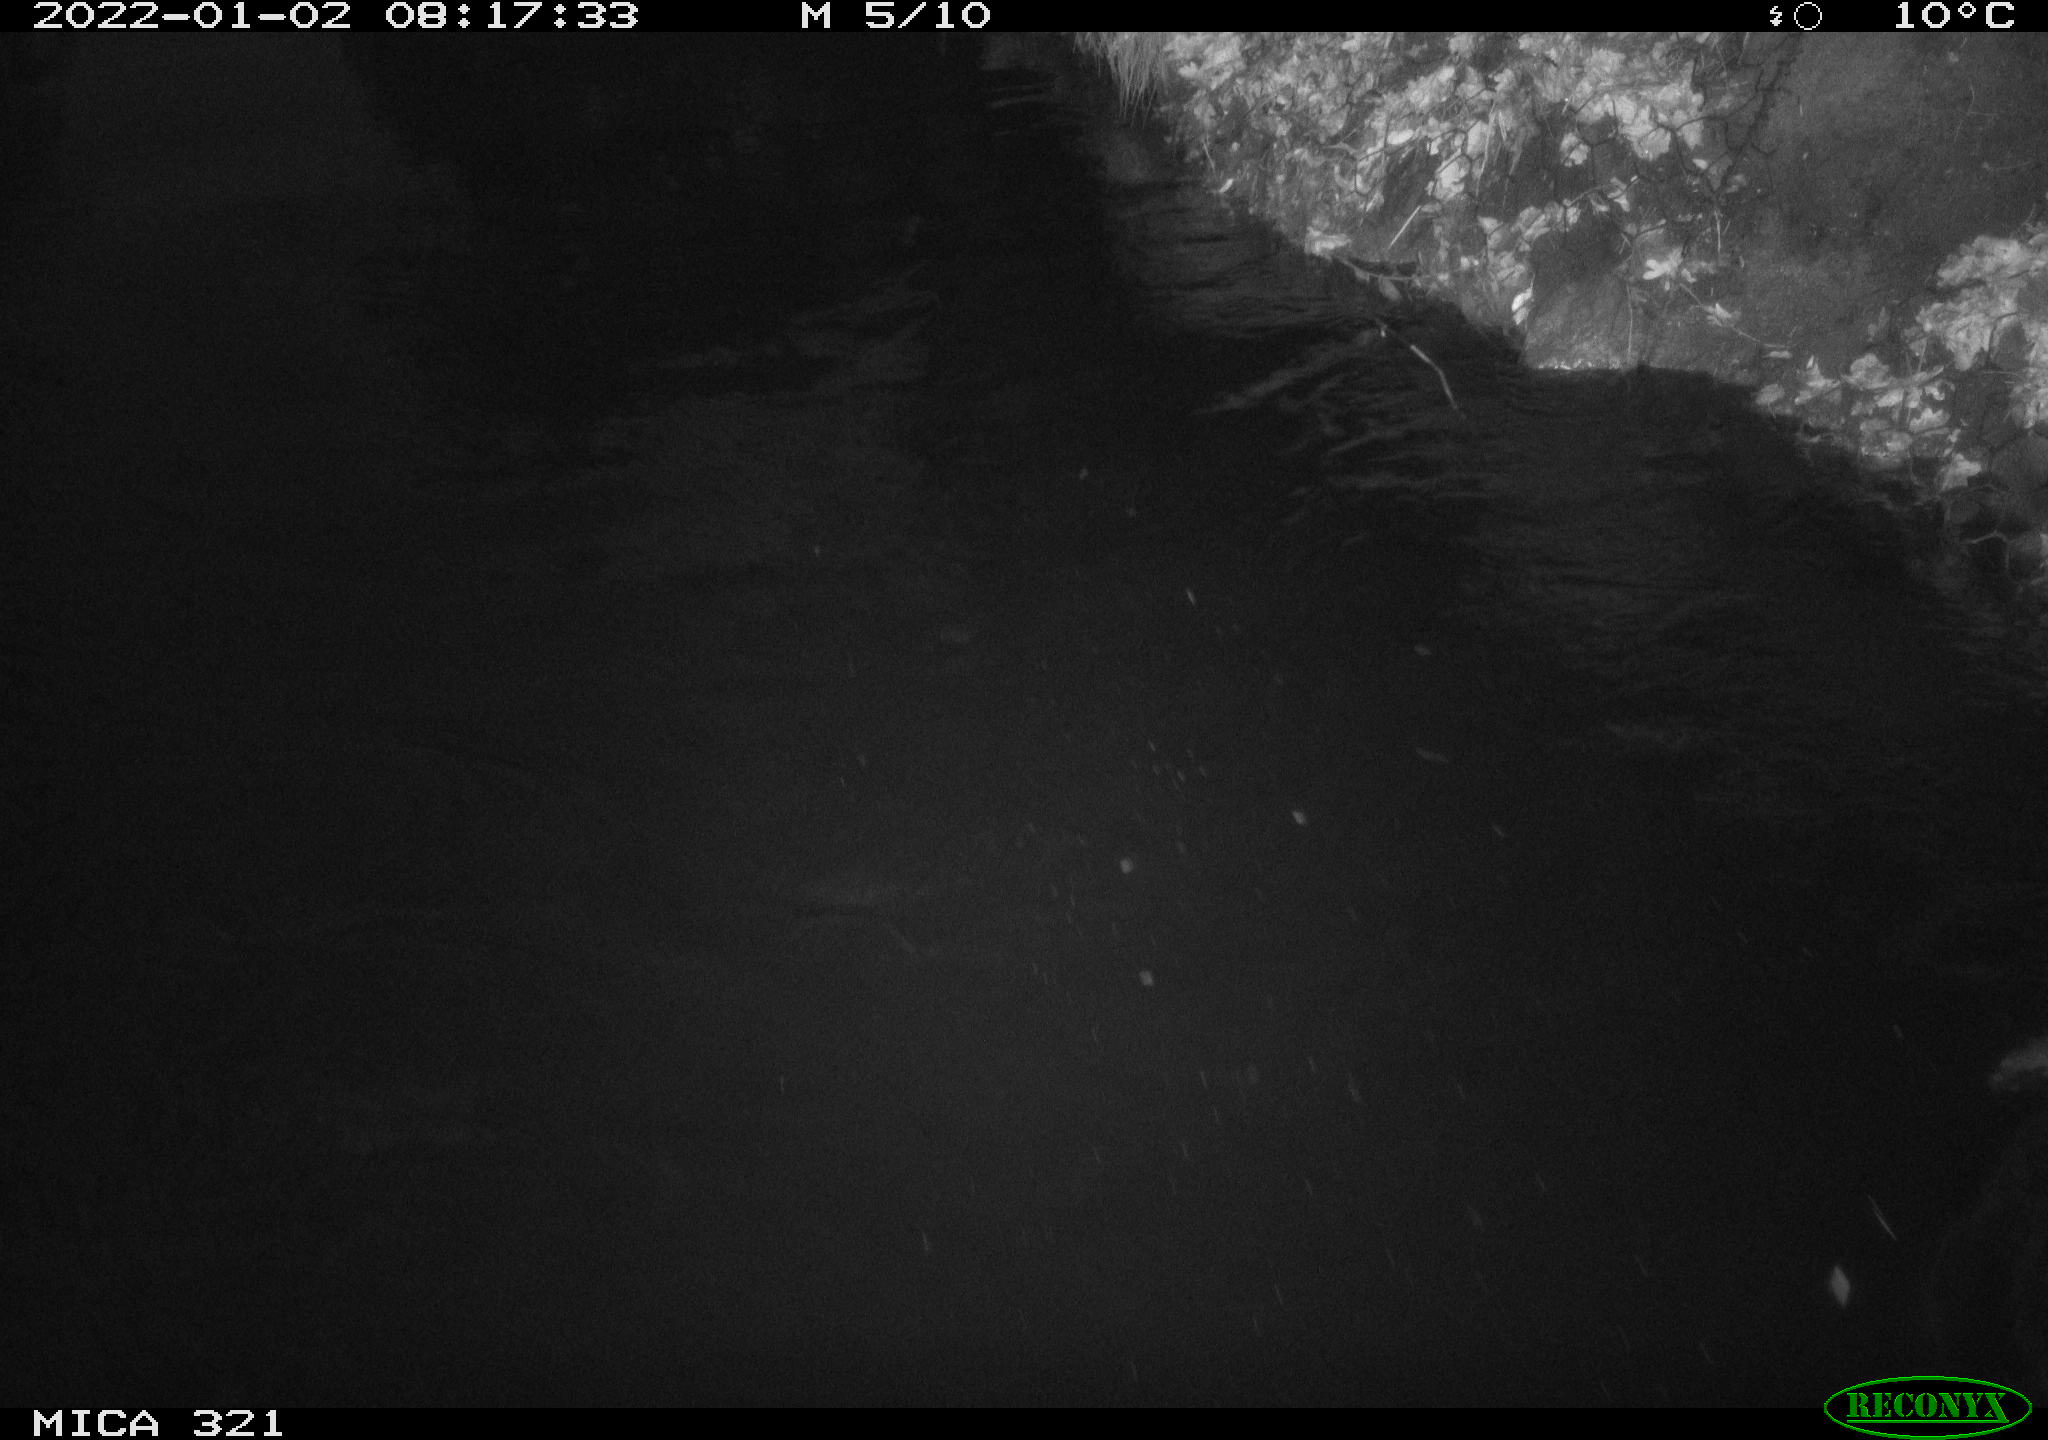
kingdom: Animalia
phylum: Chordata
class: Aves
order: Anseriformes
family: Anatidae
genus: Anas
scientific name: Anas
